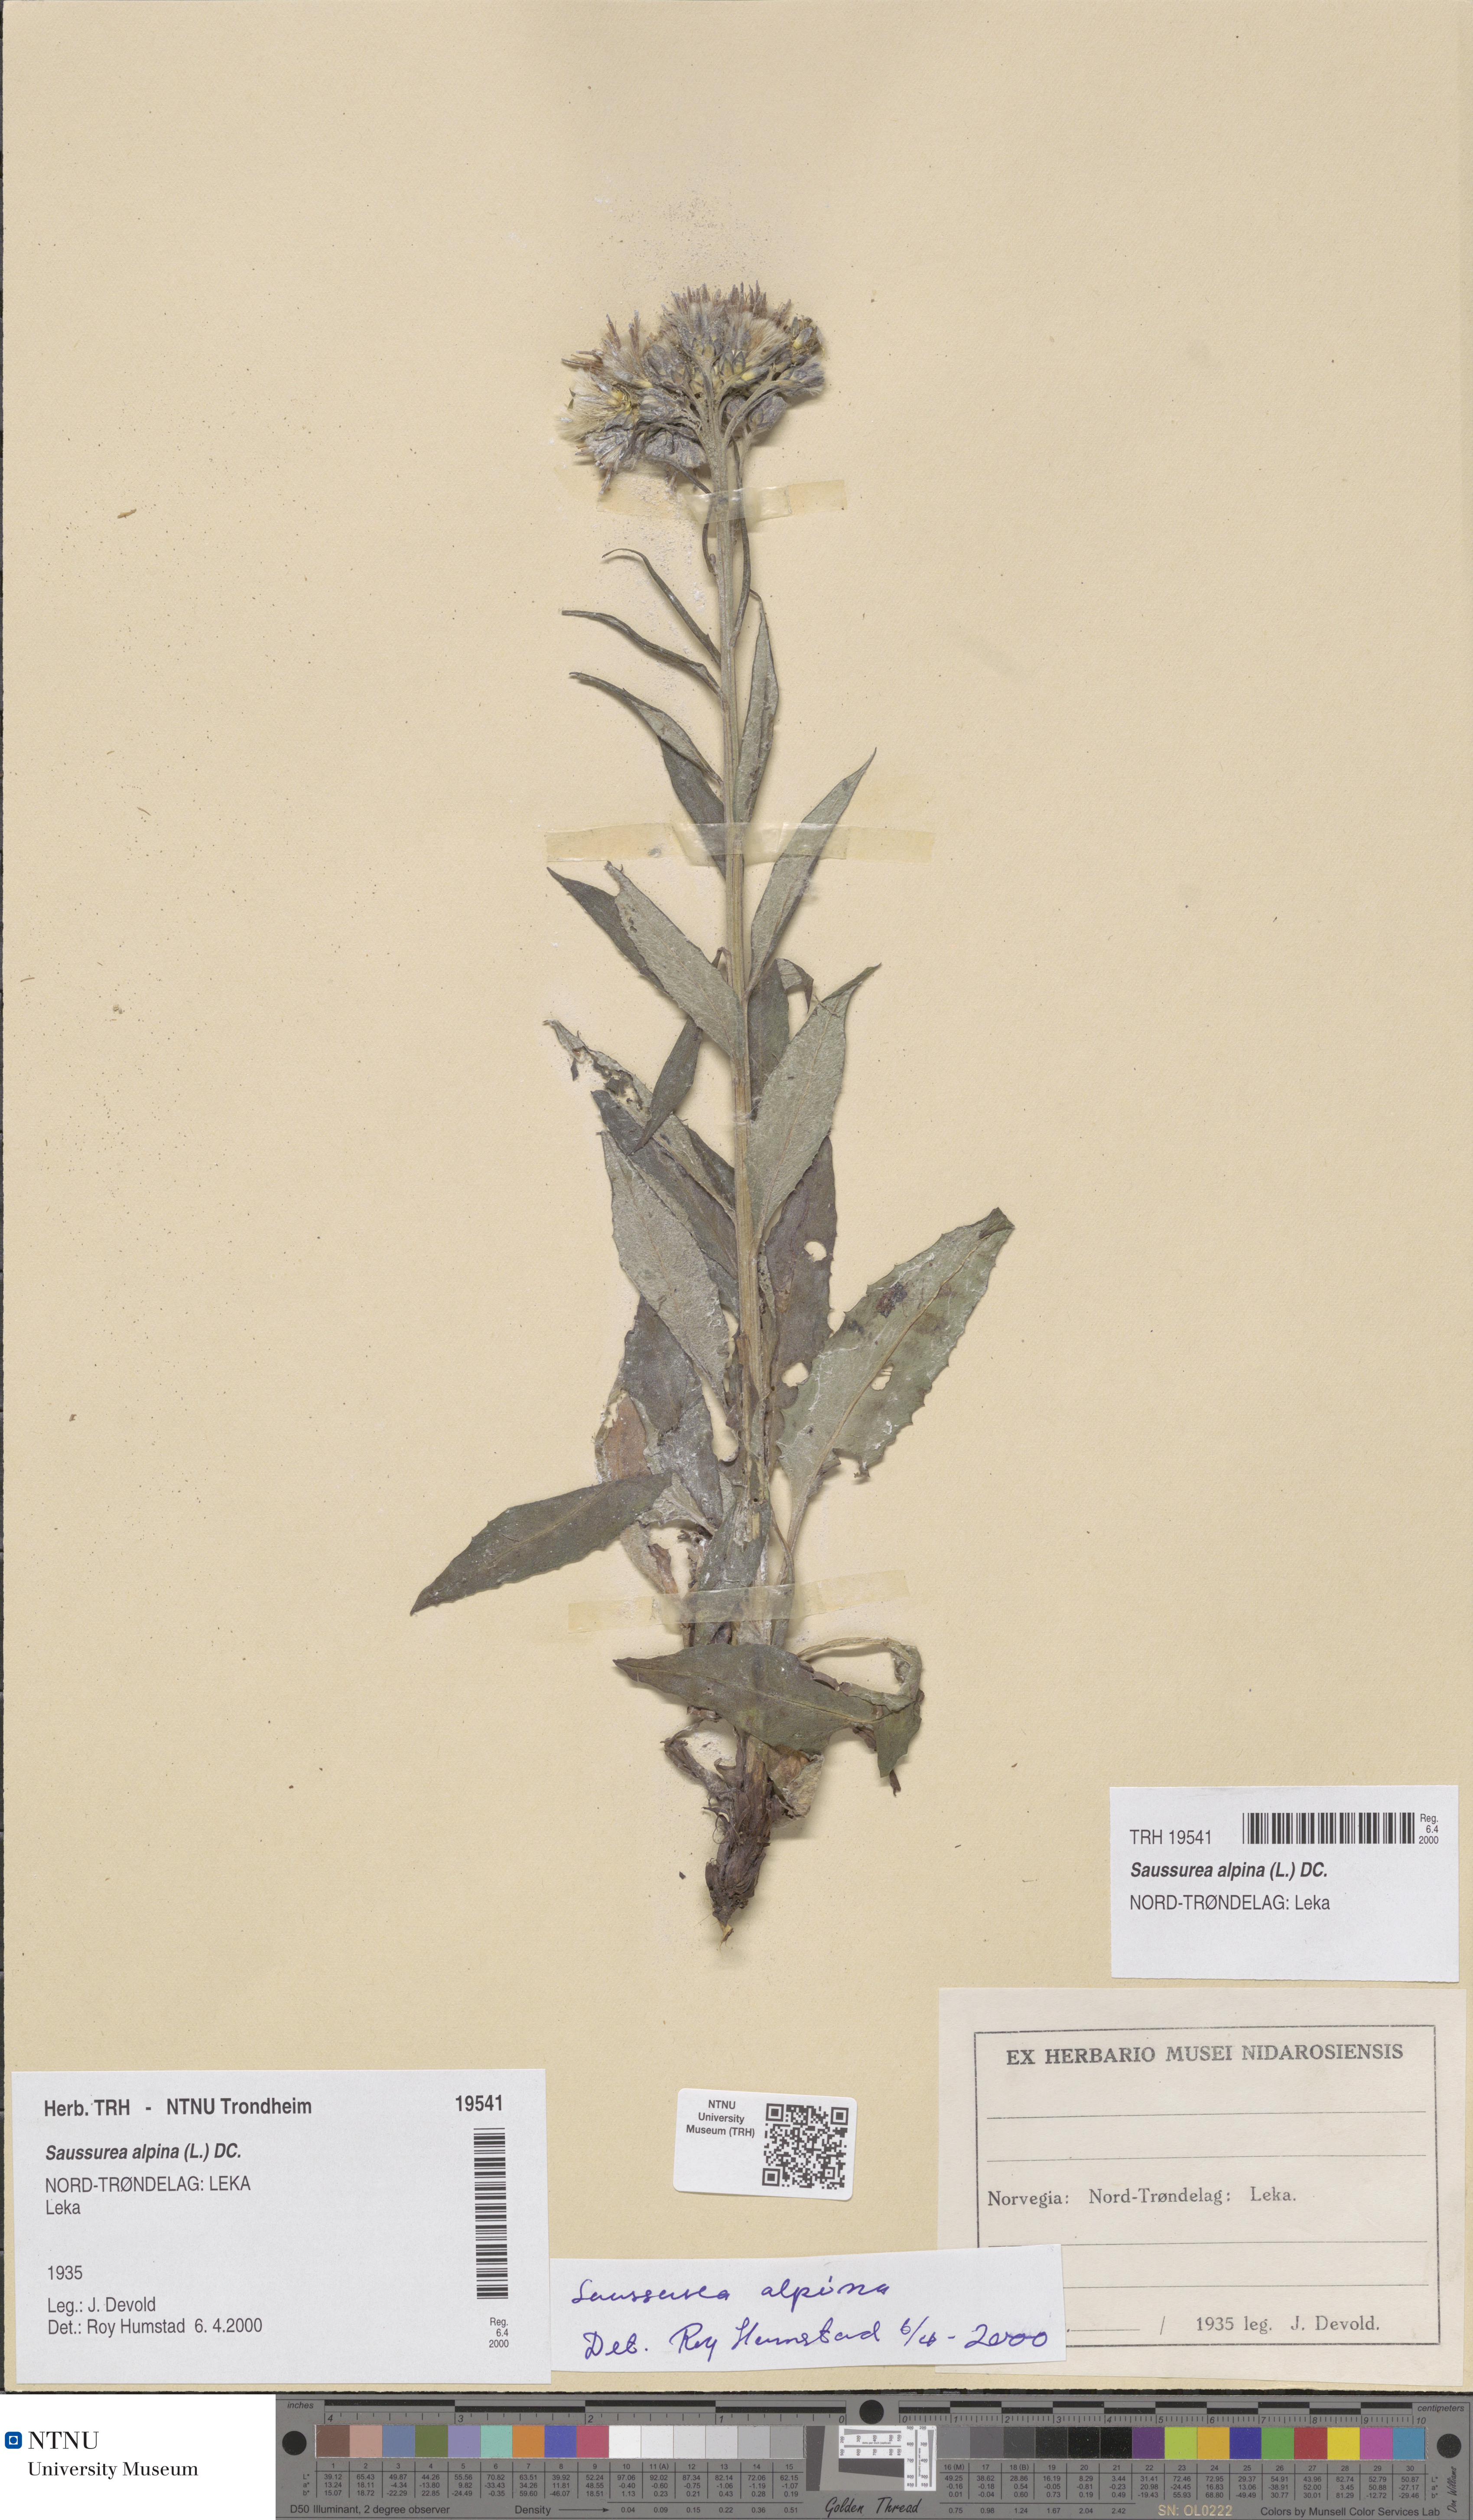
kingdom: Plantae
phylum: Tracheophyta
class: Magnoliopsida
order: Asterales
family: Asteraceae
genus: Saussurea
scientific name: Saussurea alpina
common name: Alpine saw-wort
